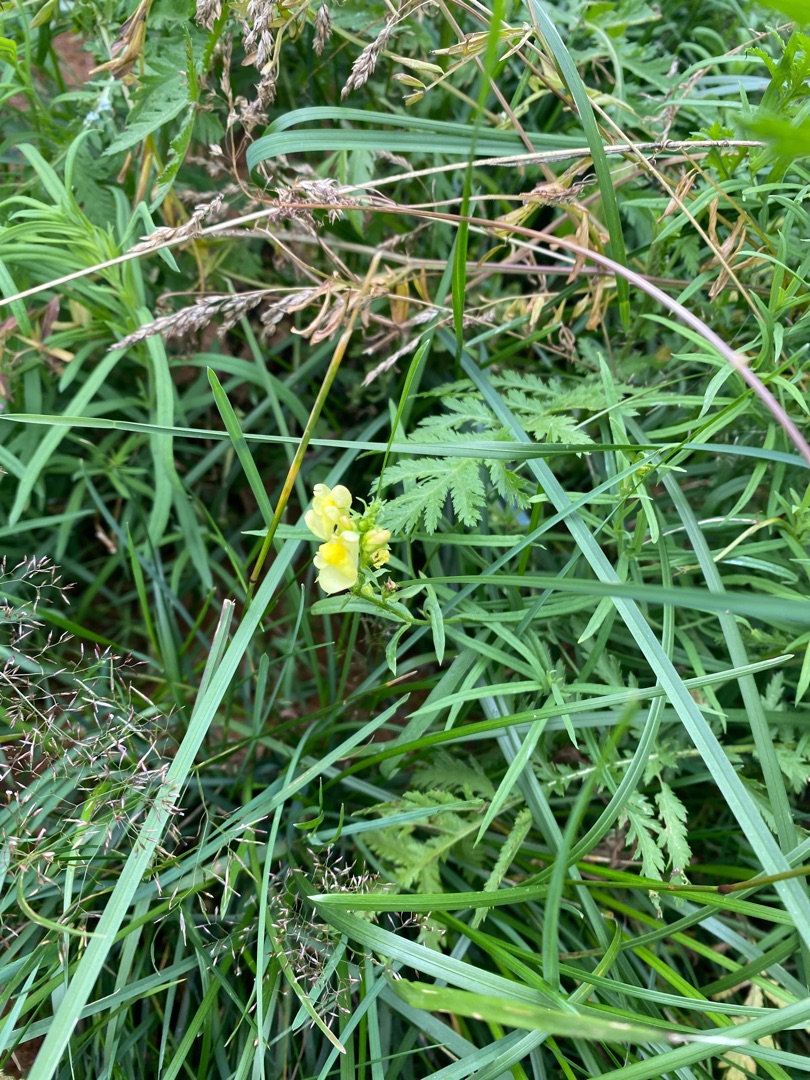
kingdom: Plantae
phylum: Tracheophyta
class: Magnoliopsida
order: Lamiales
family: Plantaginaceae
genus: Linaria
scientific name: Linaria vulgaris
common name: Almindelig torskemund
